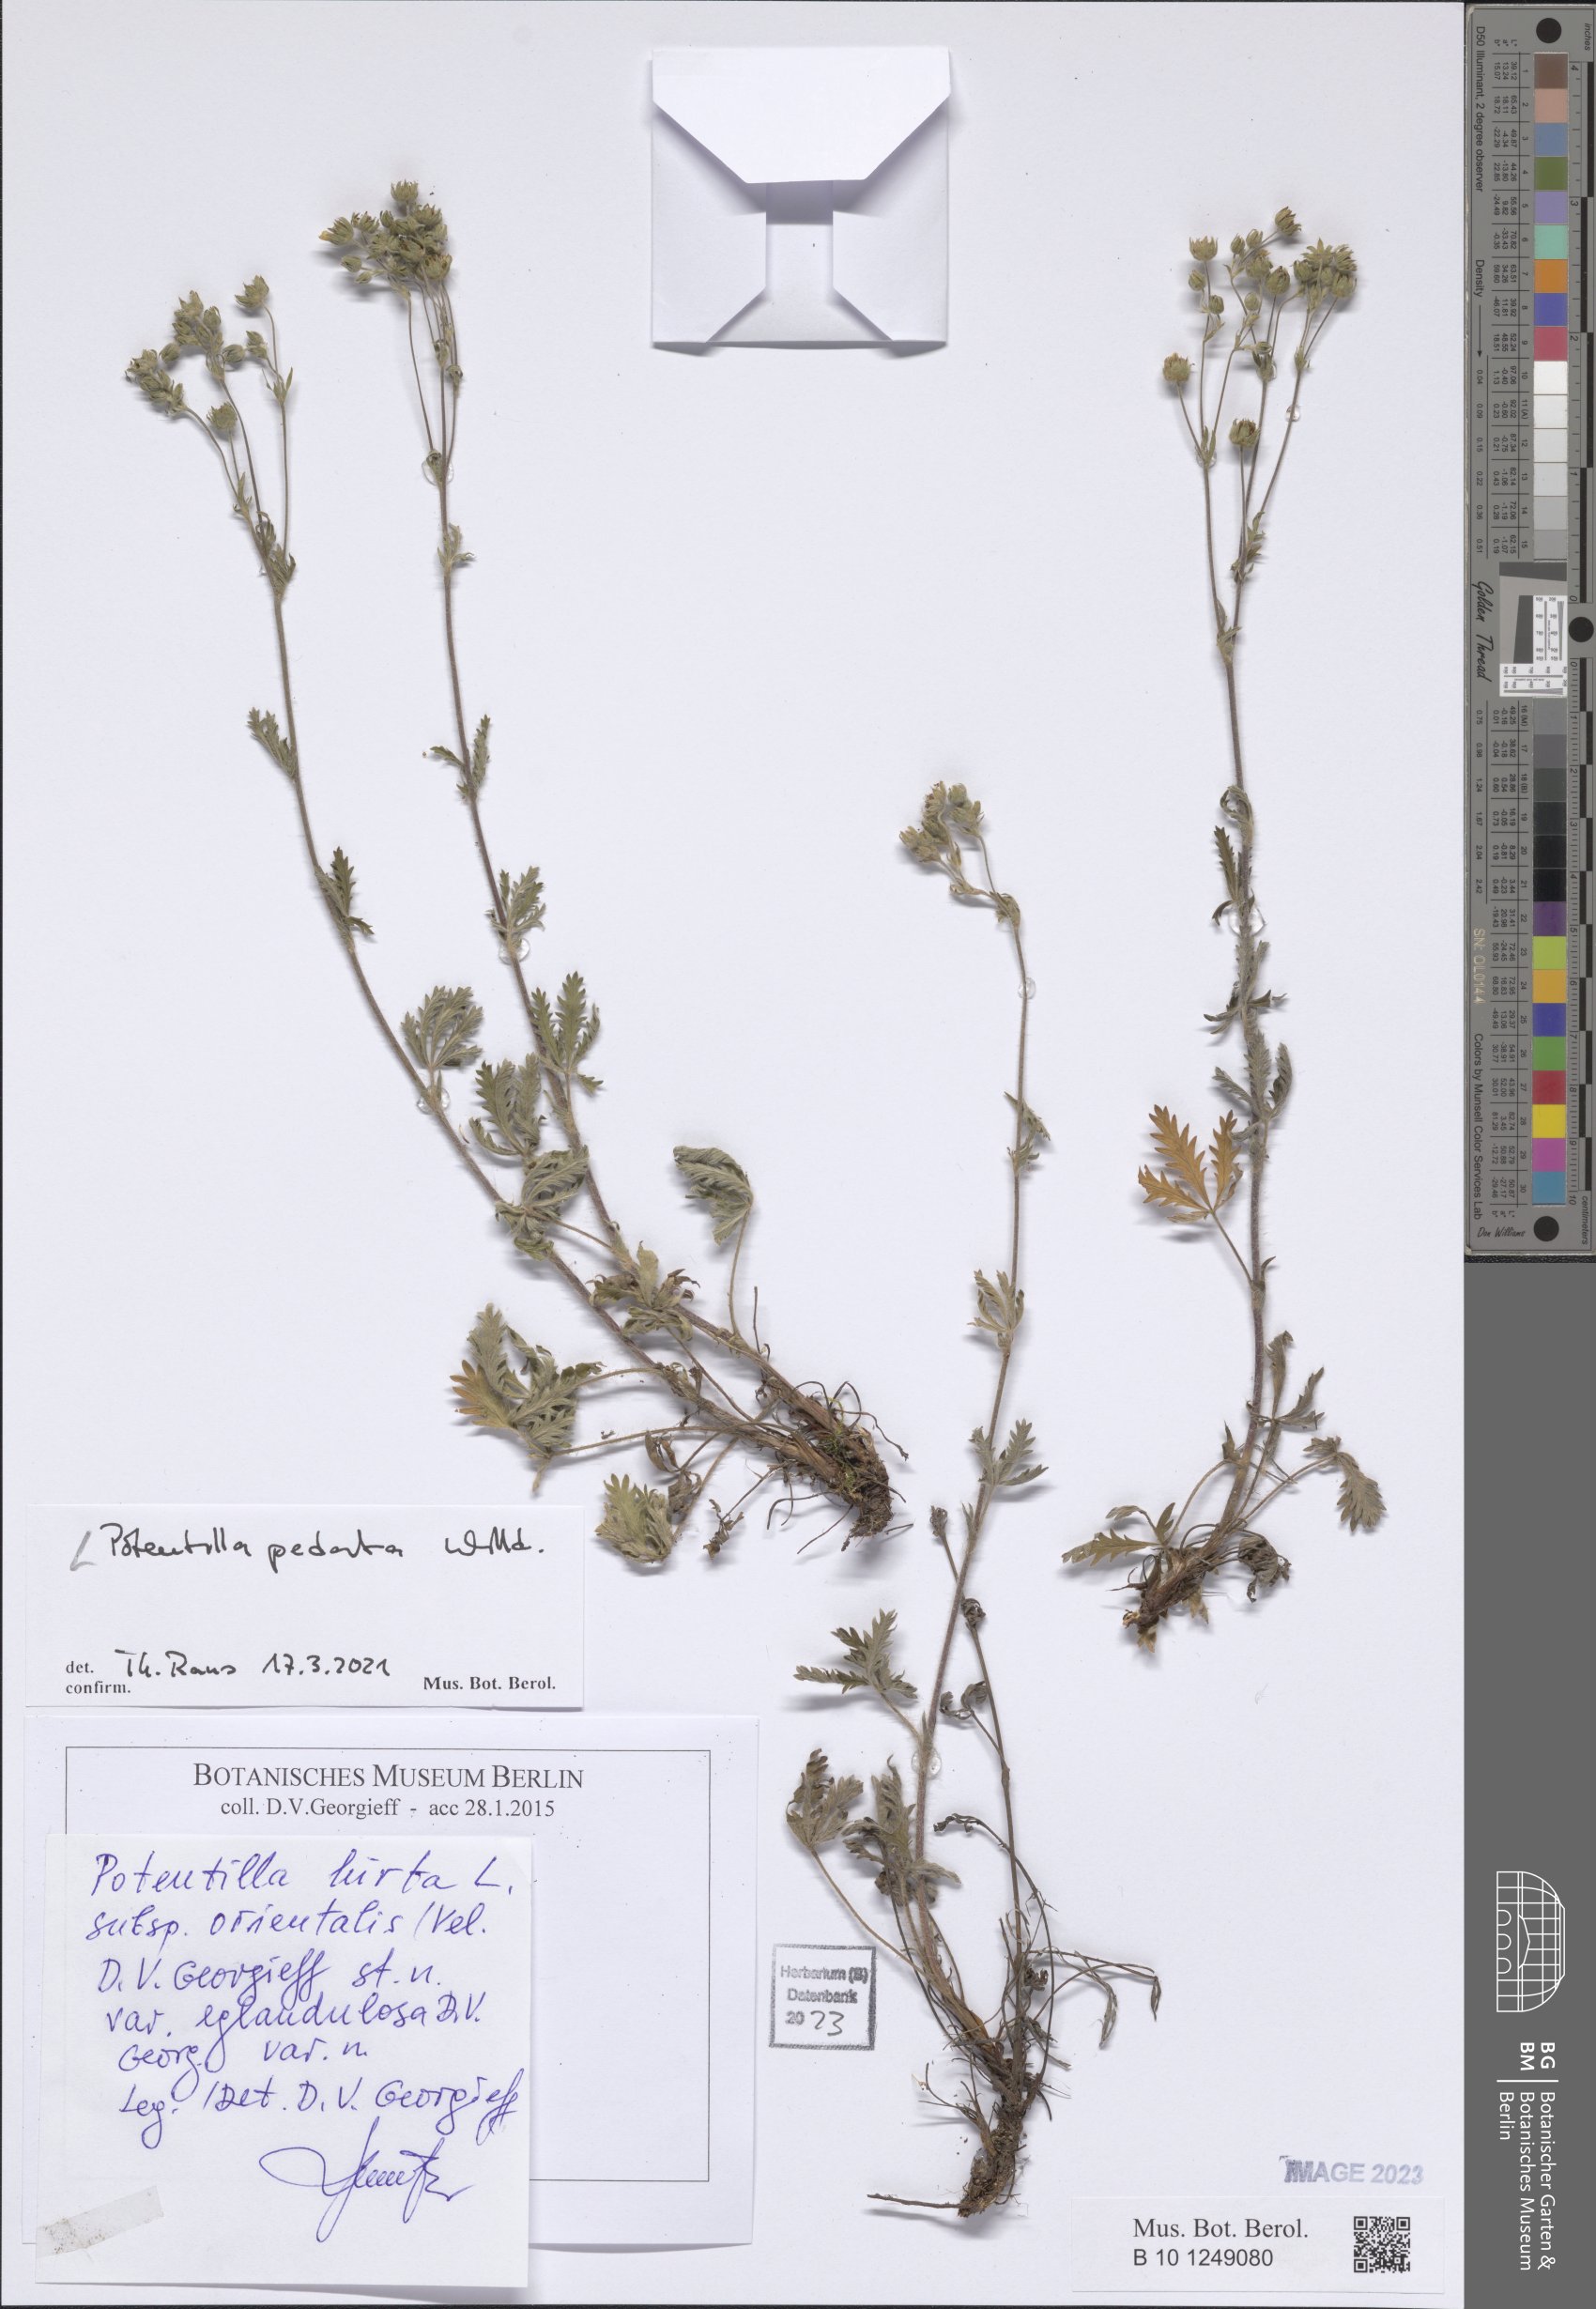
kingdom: Plantae
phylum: Tracheophyta
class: Magnoliopsida
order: Rosales
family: Rosaceae
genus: Potentilla
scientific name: Potentilla pedata
